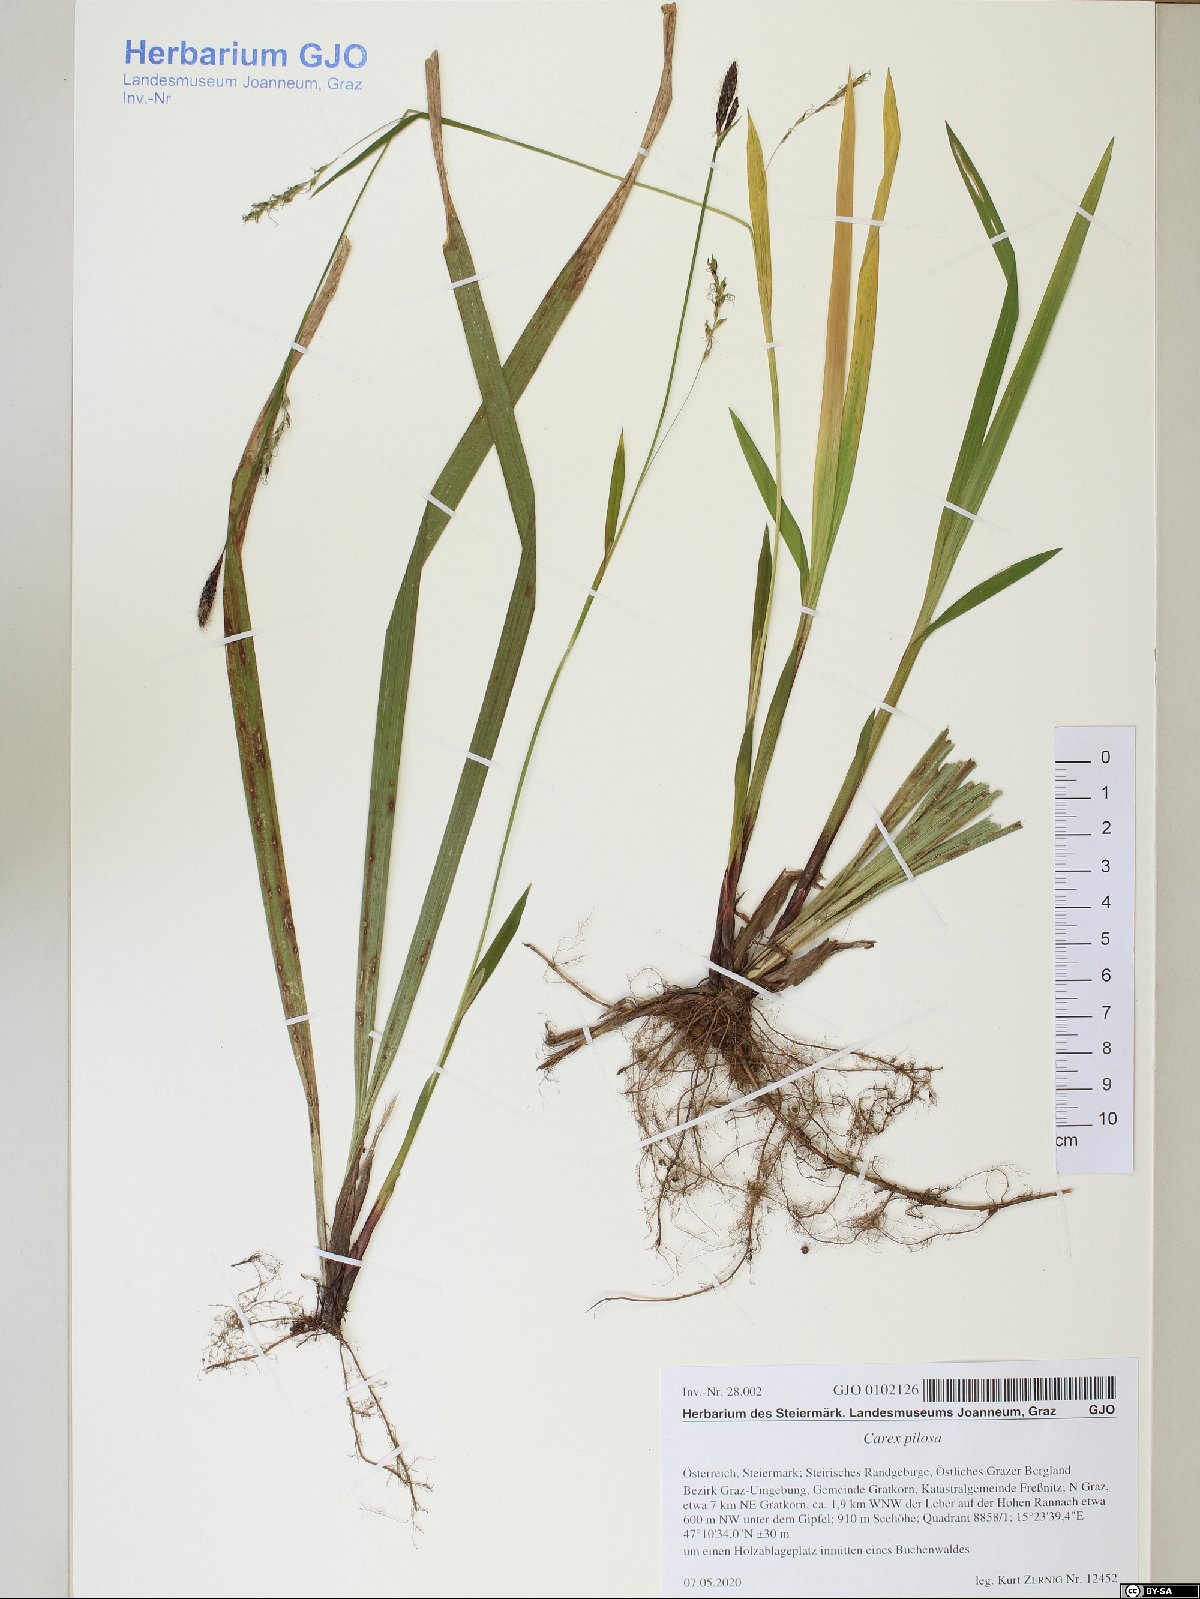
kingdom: Plantae
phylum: Tracheophyta
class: Liliopsida
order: Poales
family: Cyperaceae
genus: Carex
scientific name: Carex pilosa
